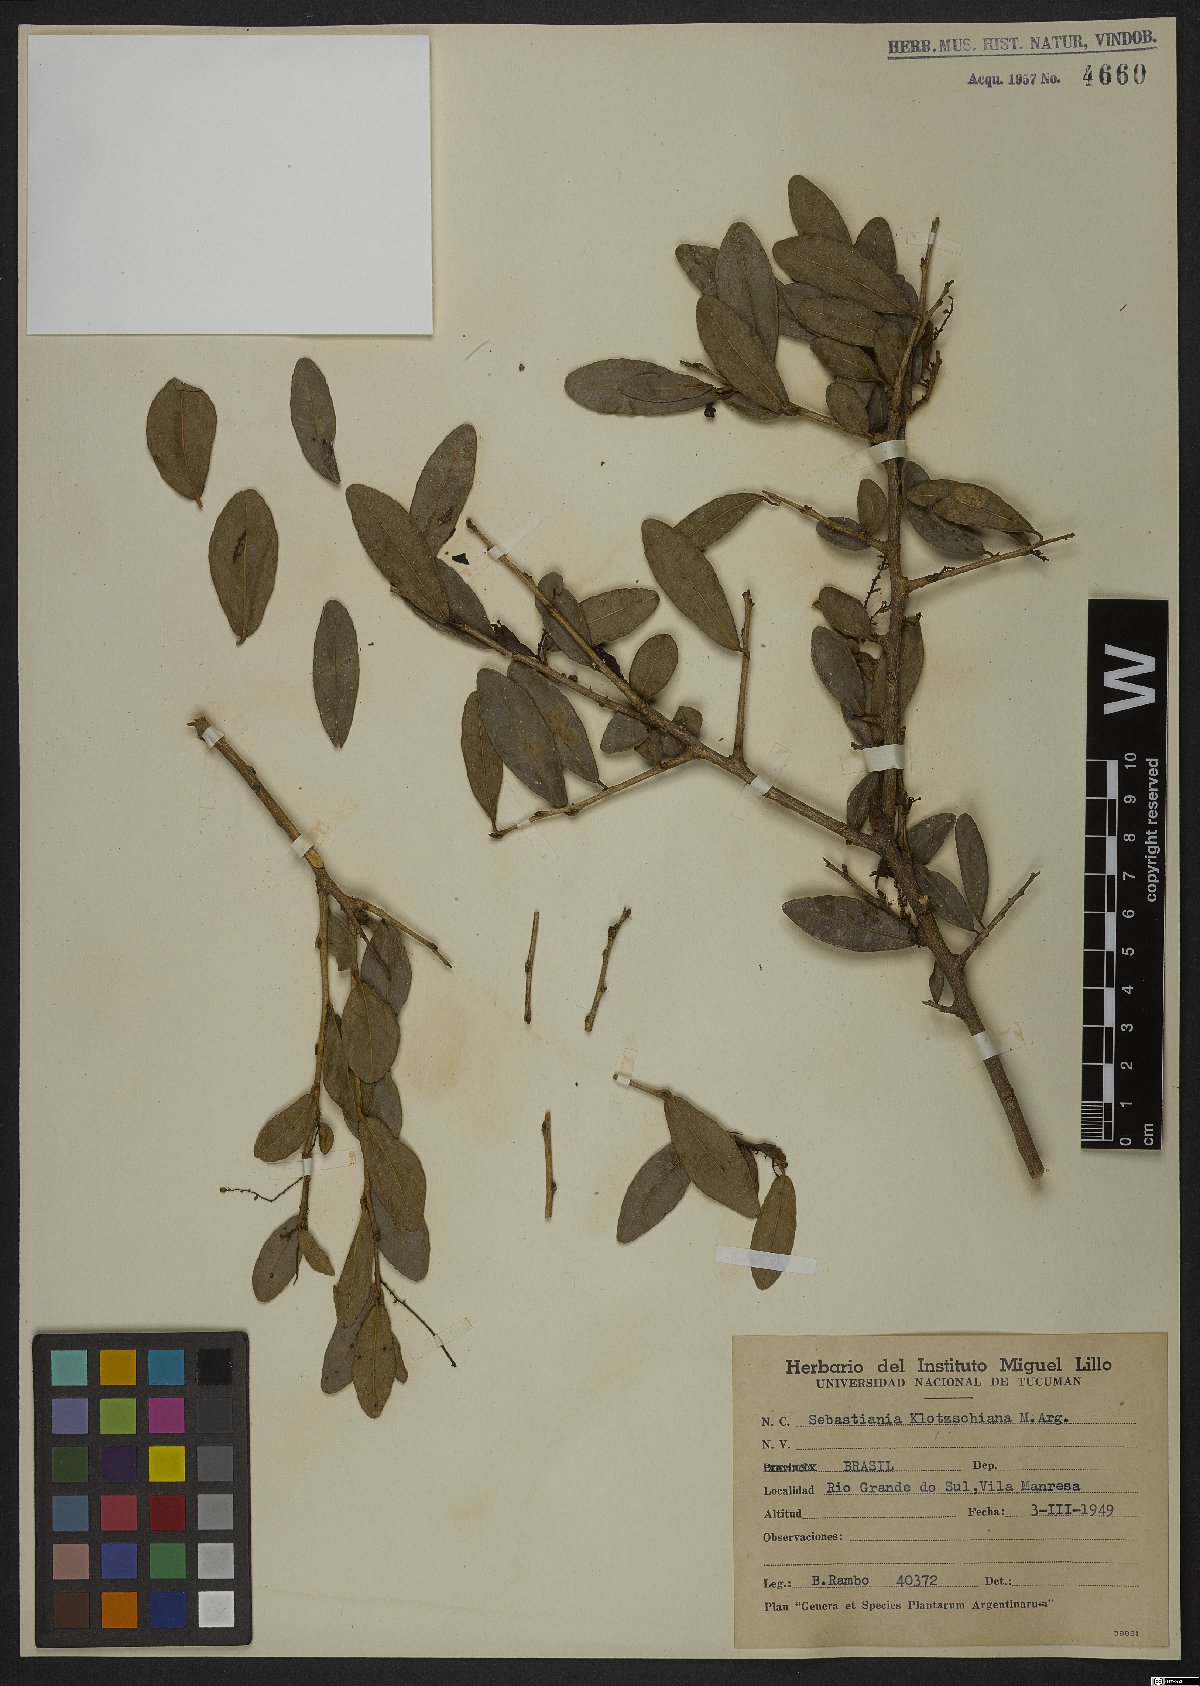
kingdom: Plantae
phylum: Tracheophyta
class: Magnoliopsida
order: Malpighiales
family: Euphorbiaceae
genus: Sebastiania
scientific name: Sebastiania klotzschiana
